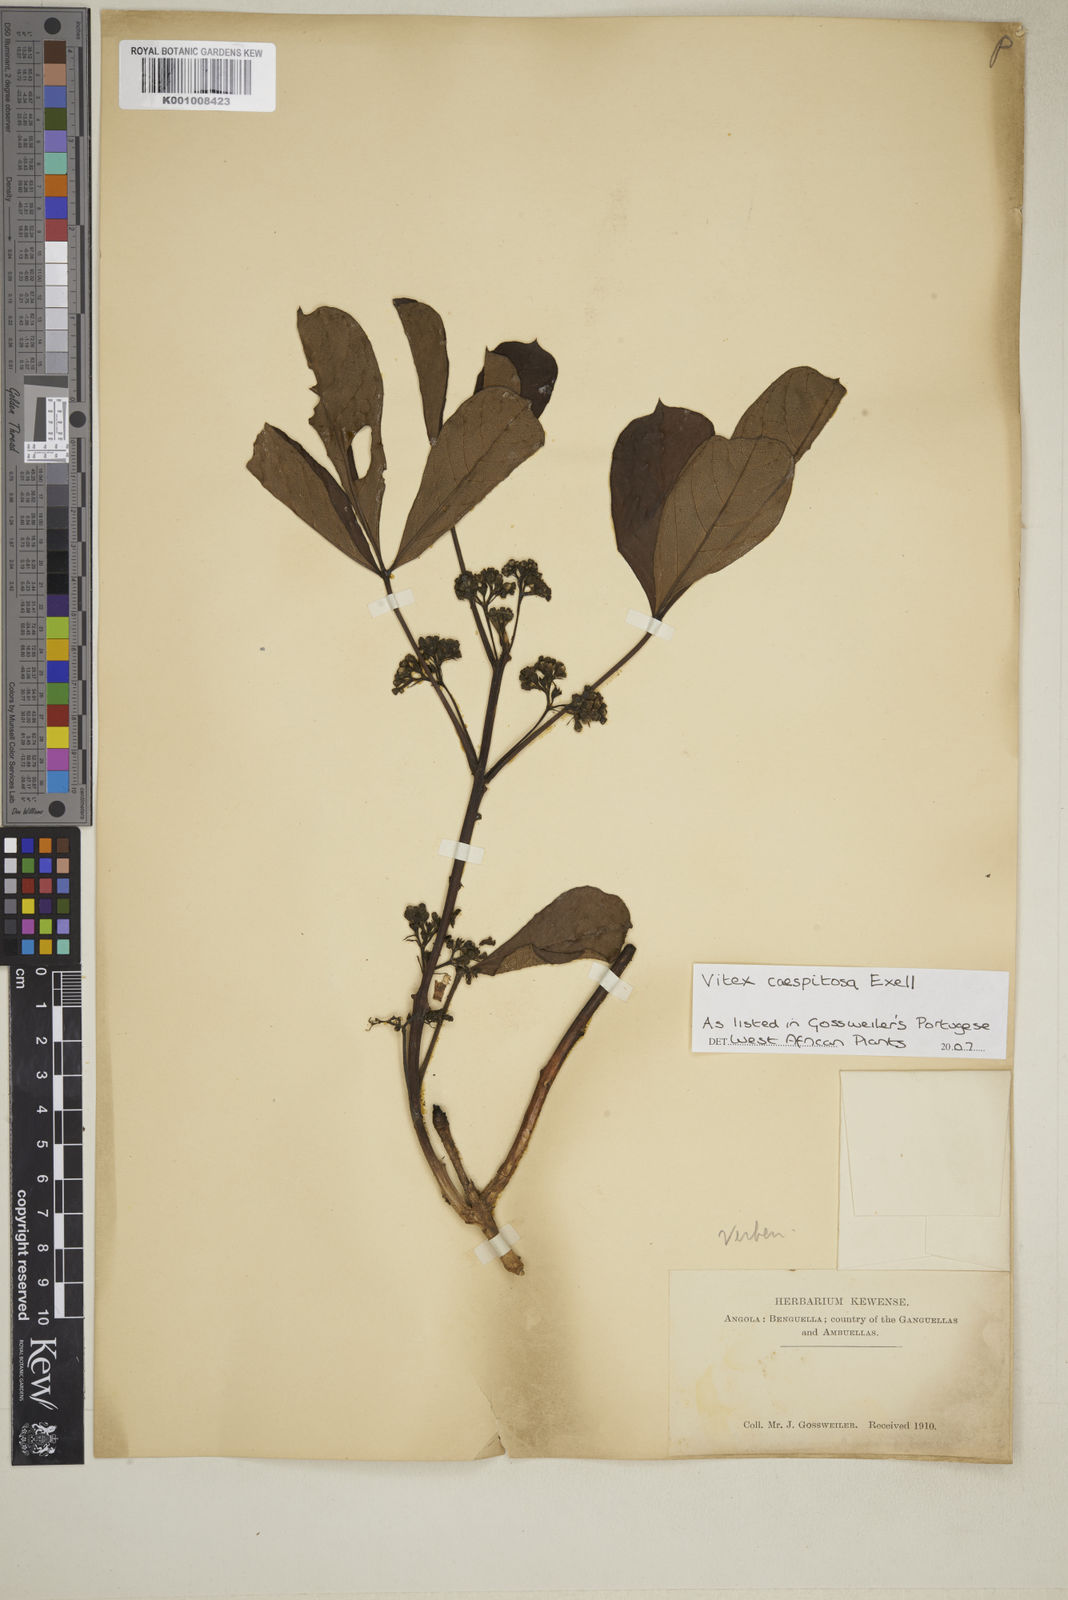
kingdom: Plantae
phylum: Tracheophyta
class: Magnoliopsida
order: Lamiales
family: Lamiaceae
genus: Vitex
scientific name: Vitex caespitosa
